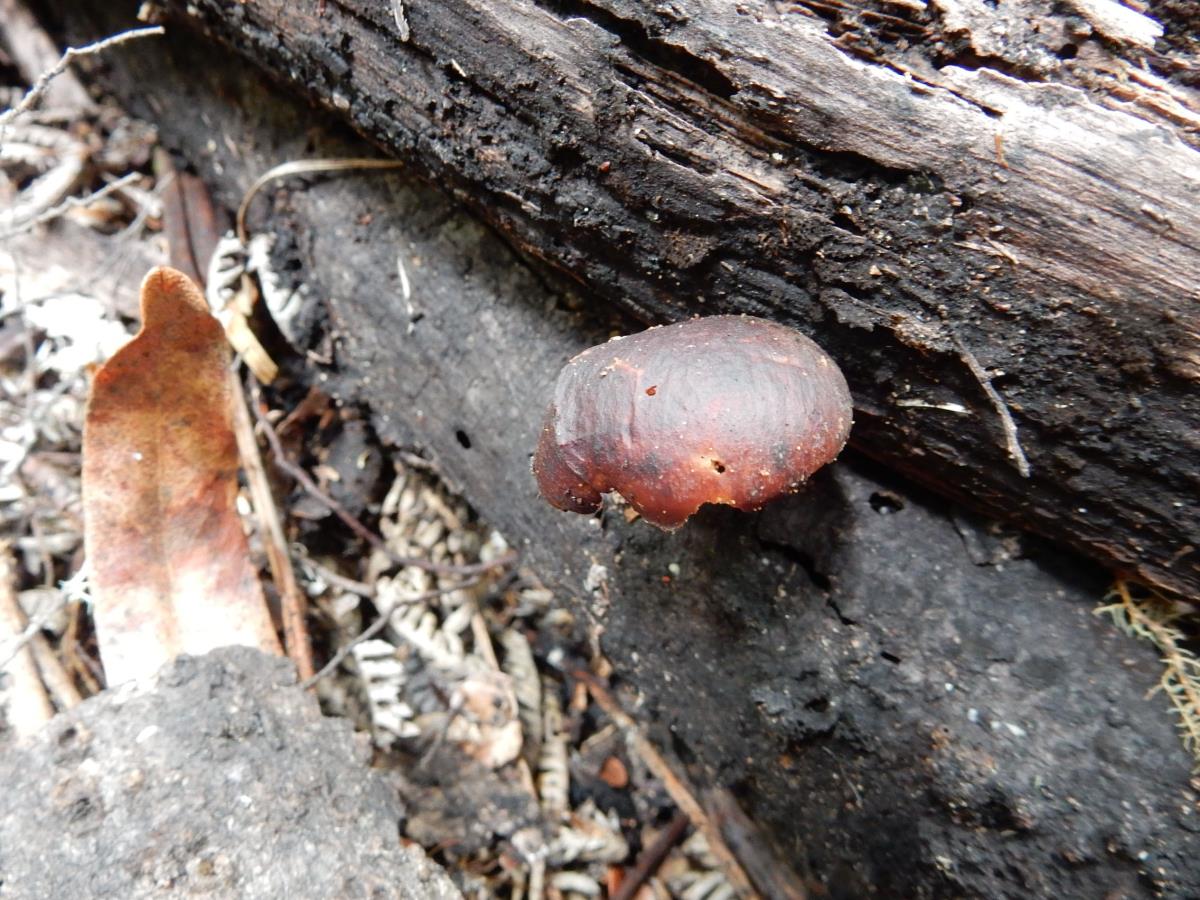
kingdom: Fungi
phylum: Basidiomycota
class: Agaricomycetes
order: Polyporales
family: Polyporaceae
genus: Picipes
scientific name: Picipes melanopus
